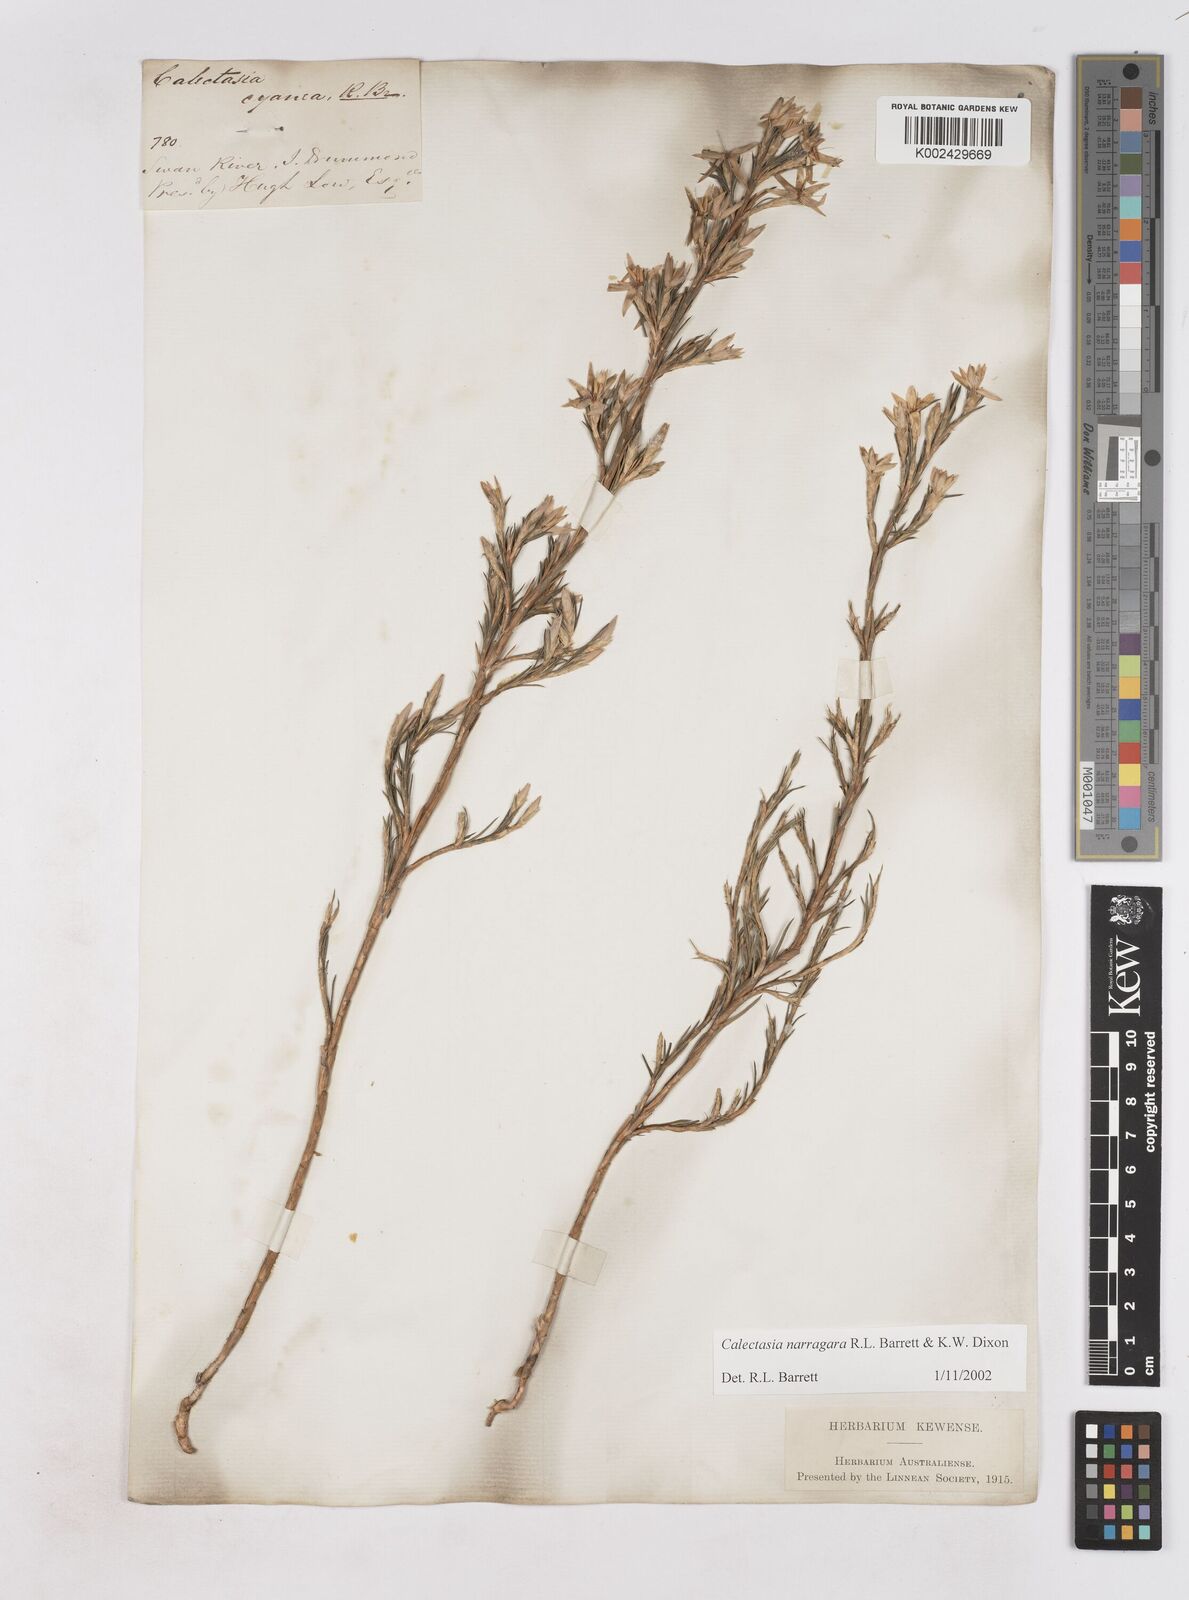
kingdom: Plantae
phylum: Tracheophyta
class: Liliopsida
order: Arecales
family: Dasypogonaceae
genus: Calectasia
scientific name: Calectasia narragara
